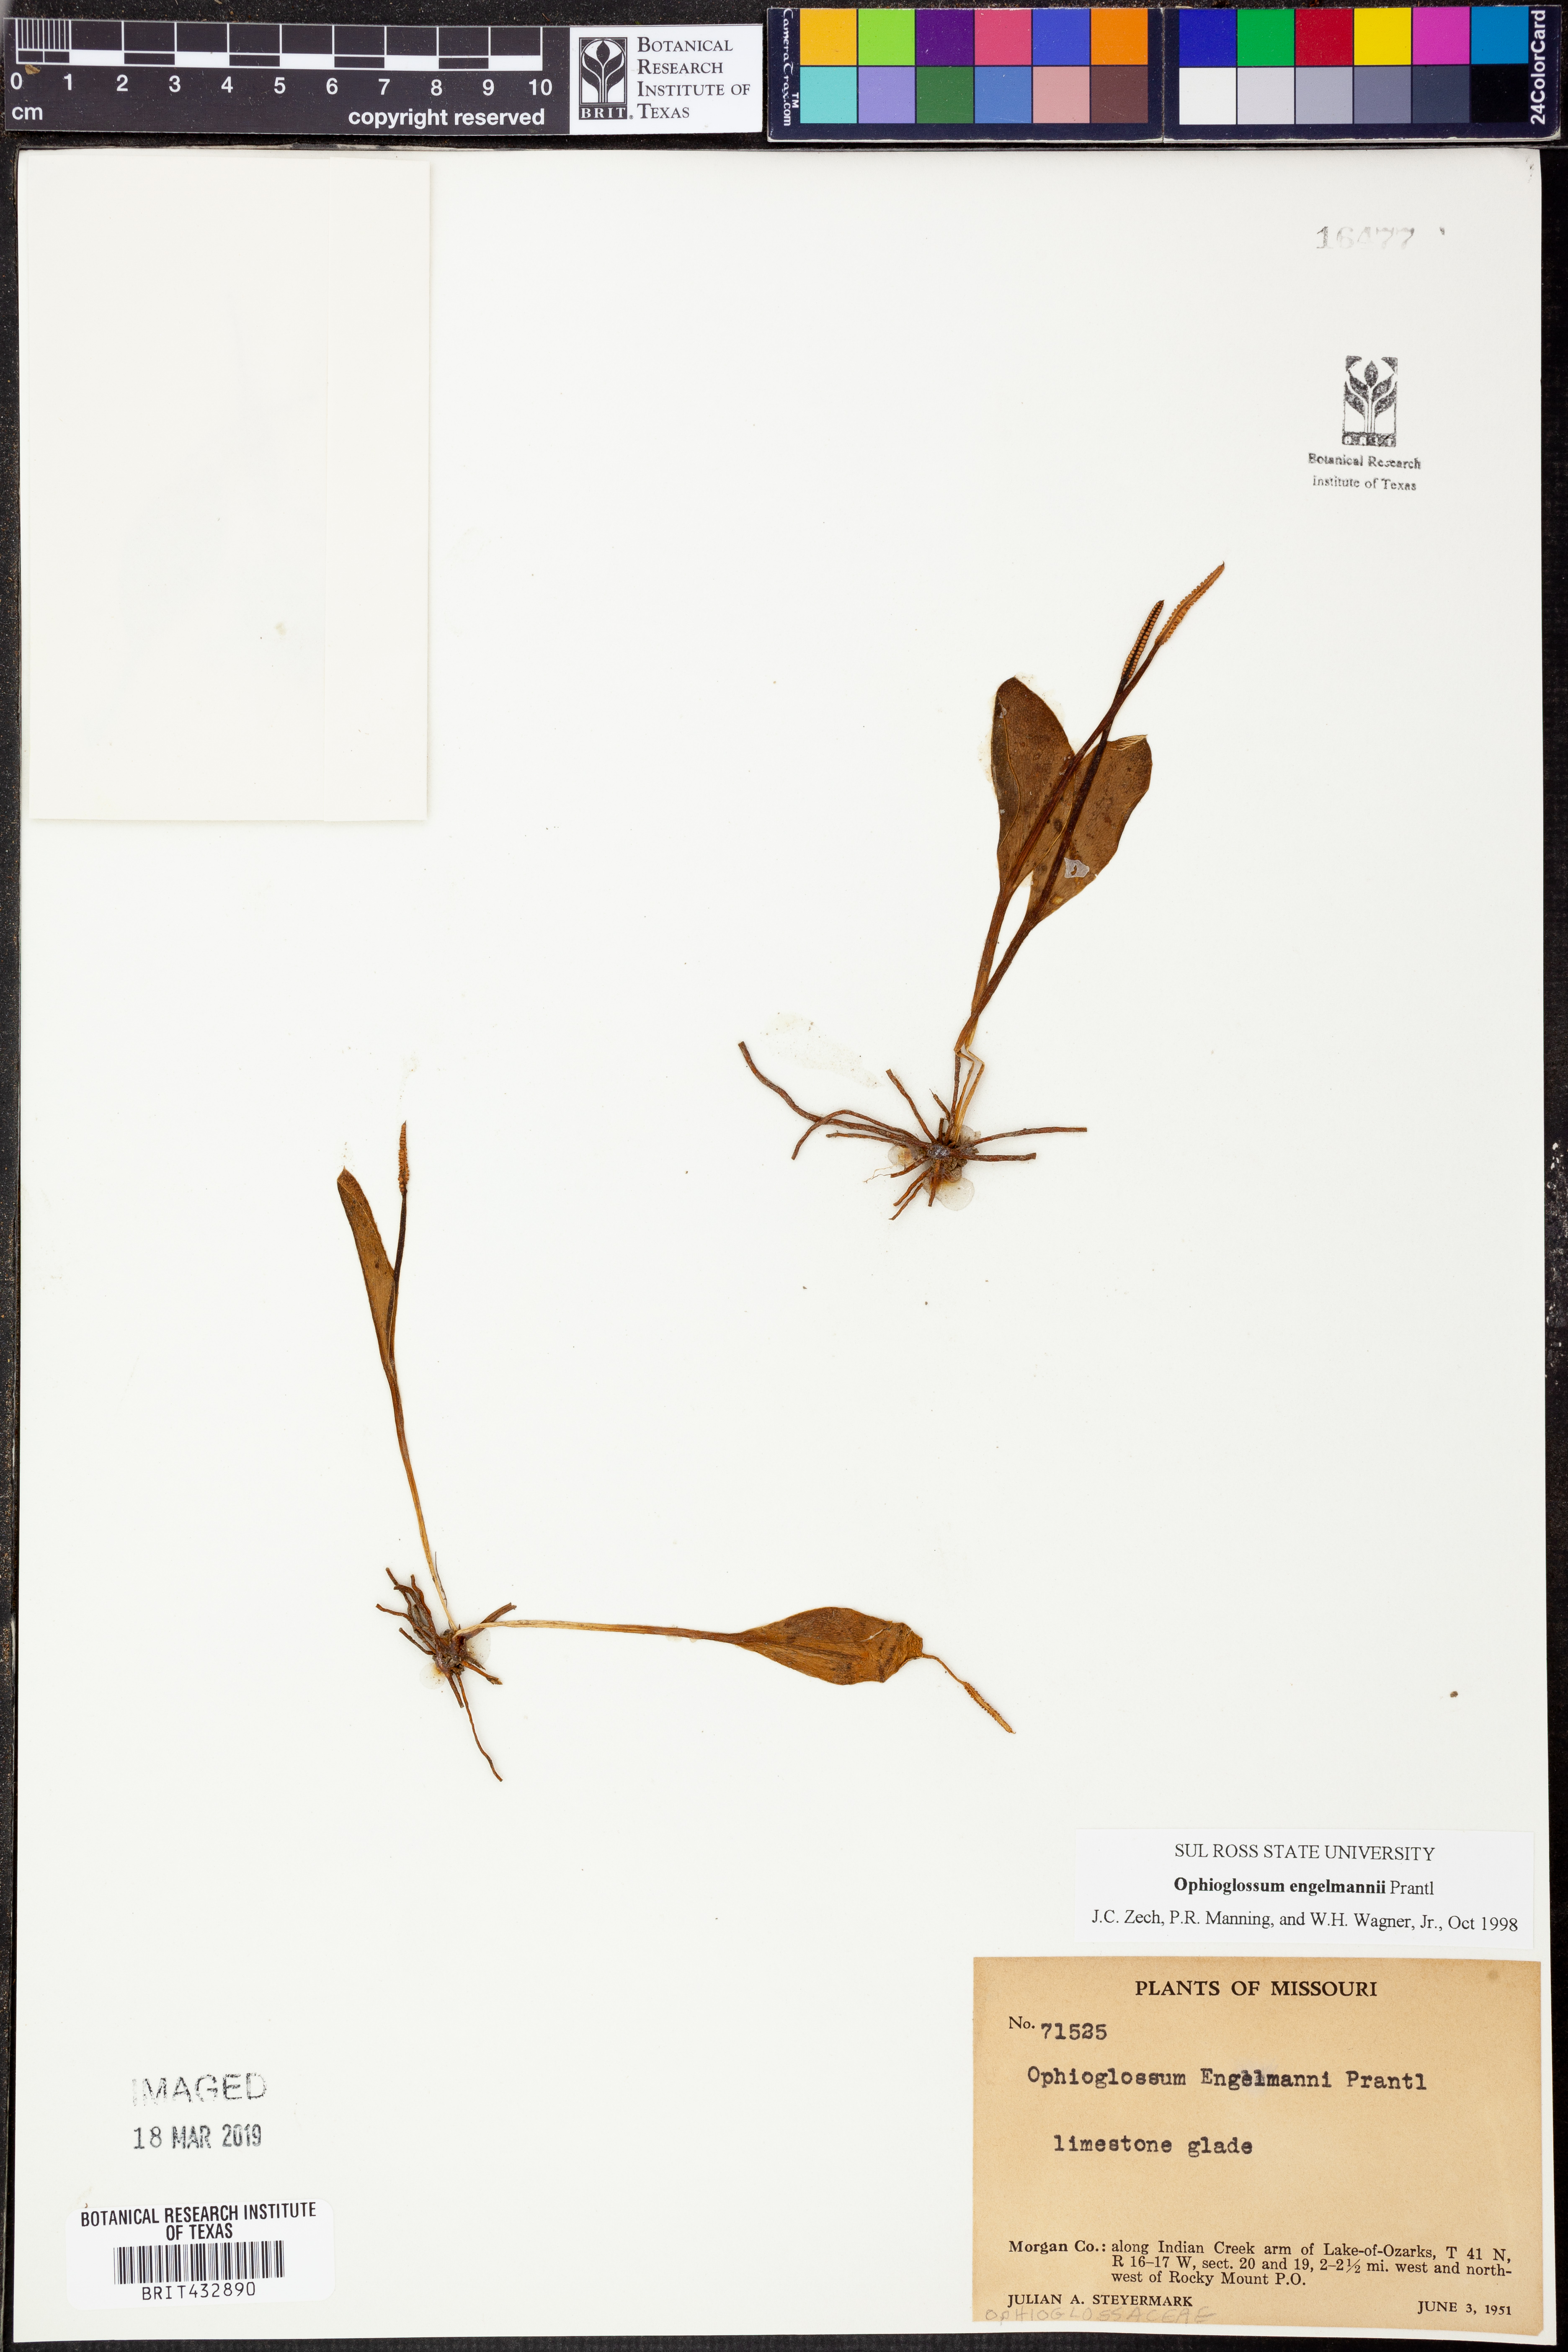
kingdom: Plantae
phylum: Tracheophyta
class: Polypodiopsida
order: Ophioglossales
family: Ophioglossaceae
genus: Ophioglossum
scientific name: Ophioglossum engelmannii
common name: Limestone adder's-tongue
